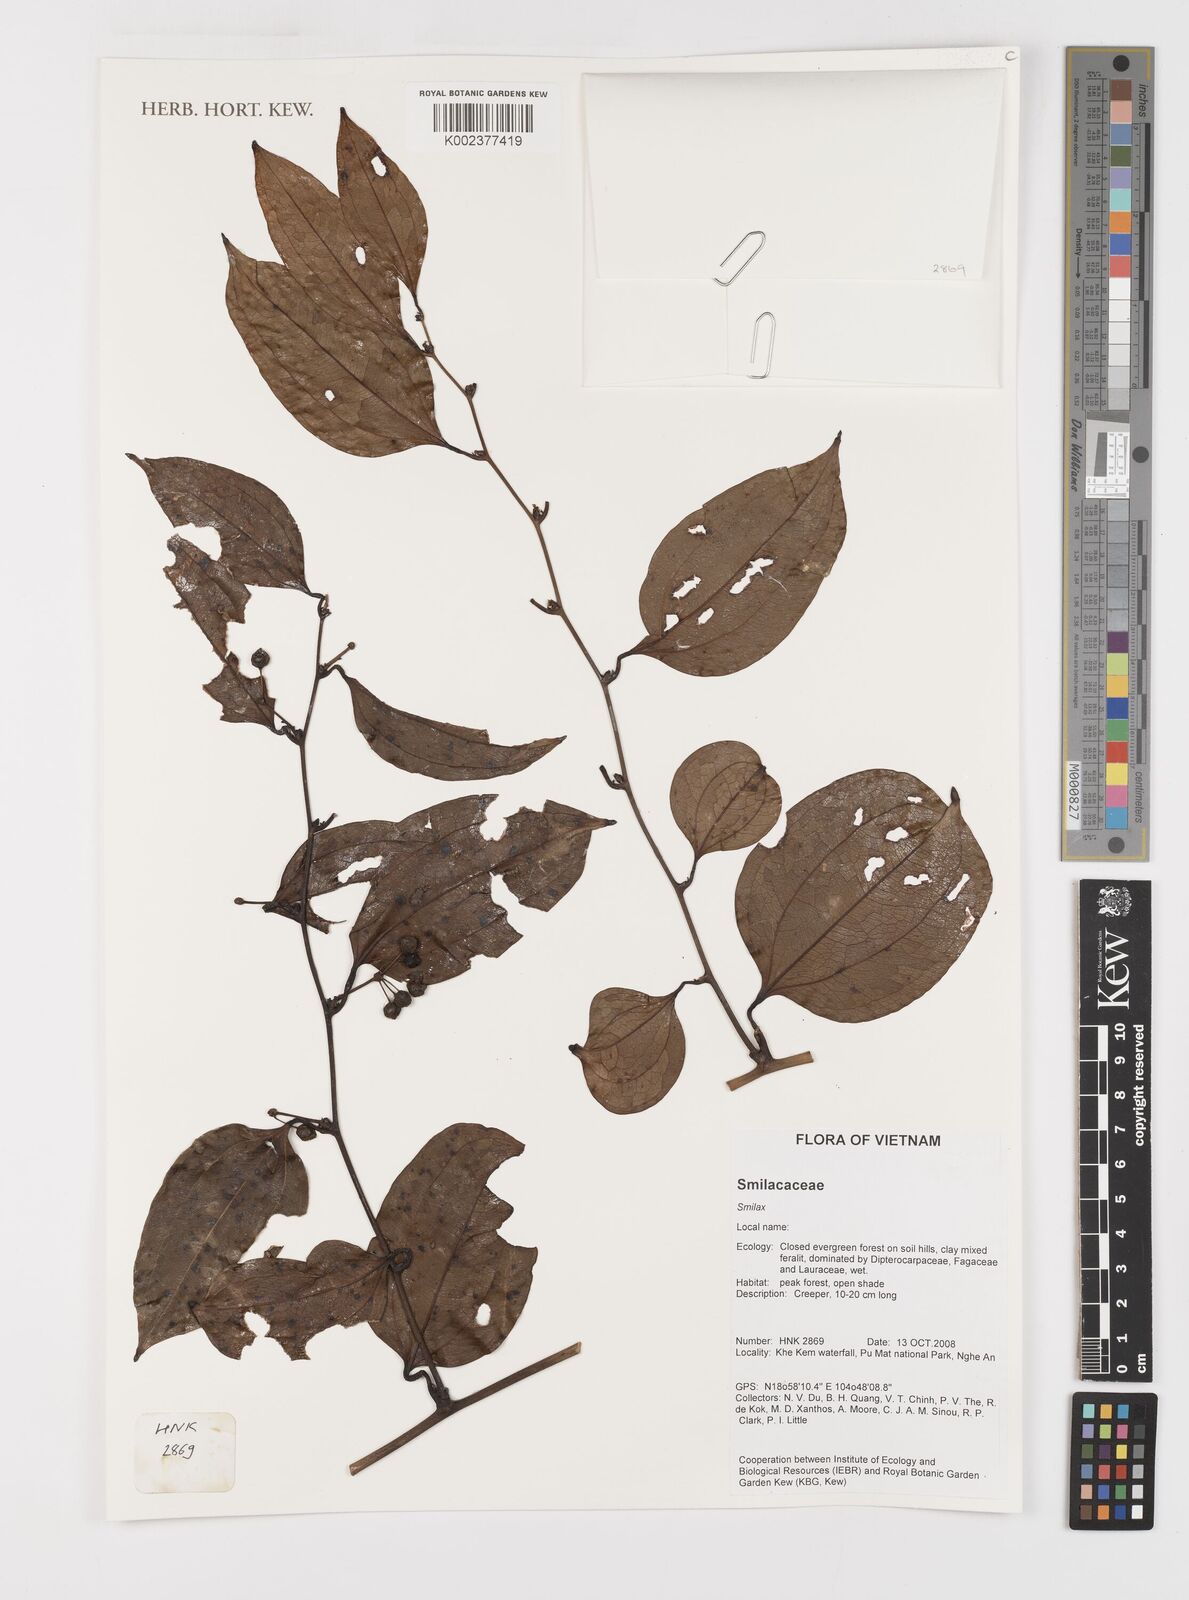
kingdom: Plantae
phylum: Tracheophyta
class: Liliopsida
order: Liliales
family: Smilacaceae
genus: Smilax
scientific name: Smilax
